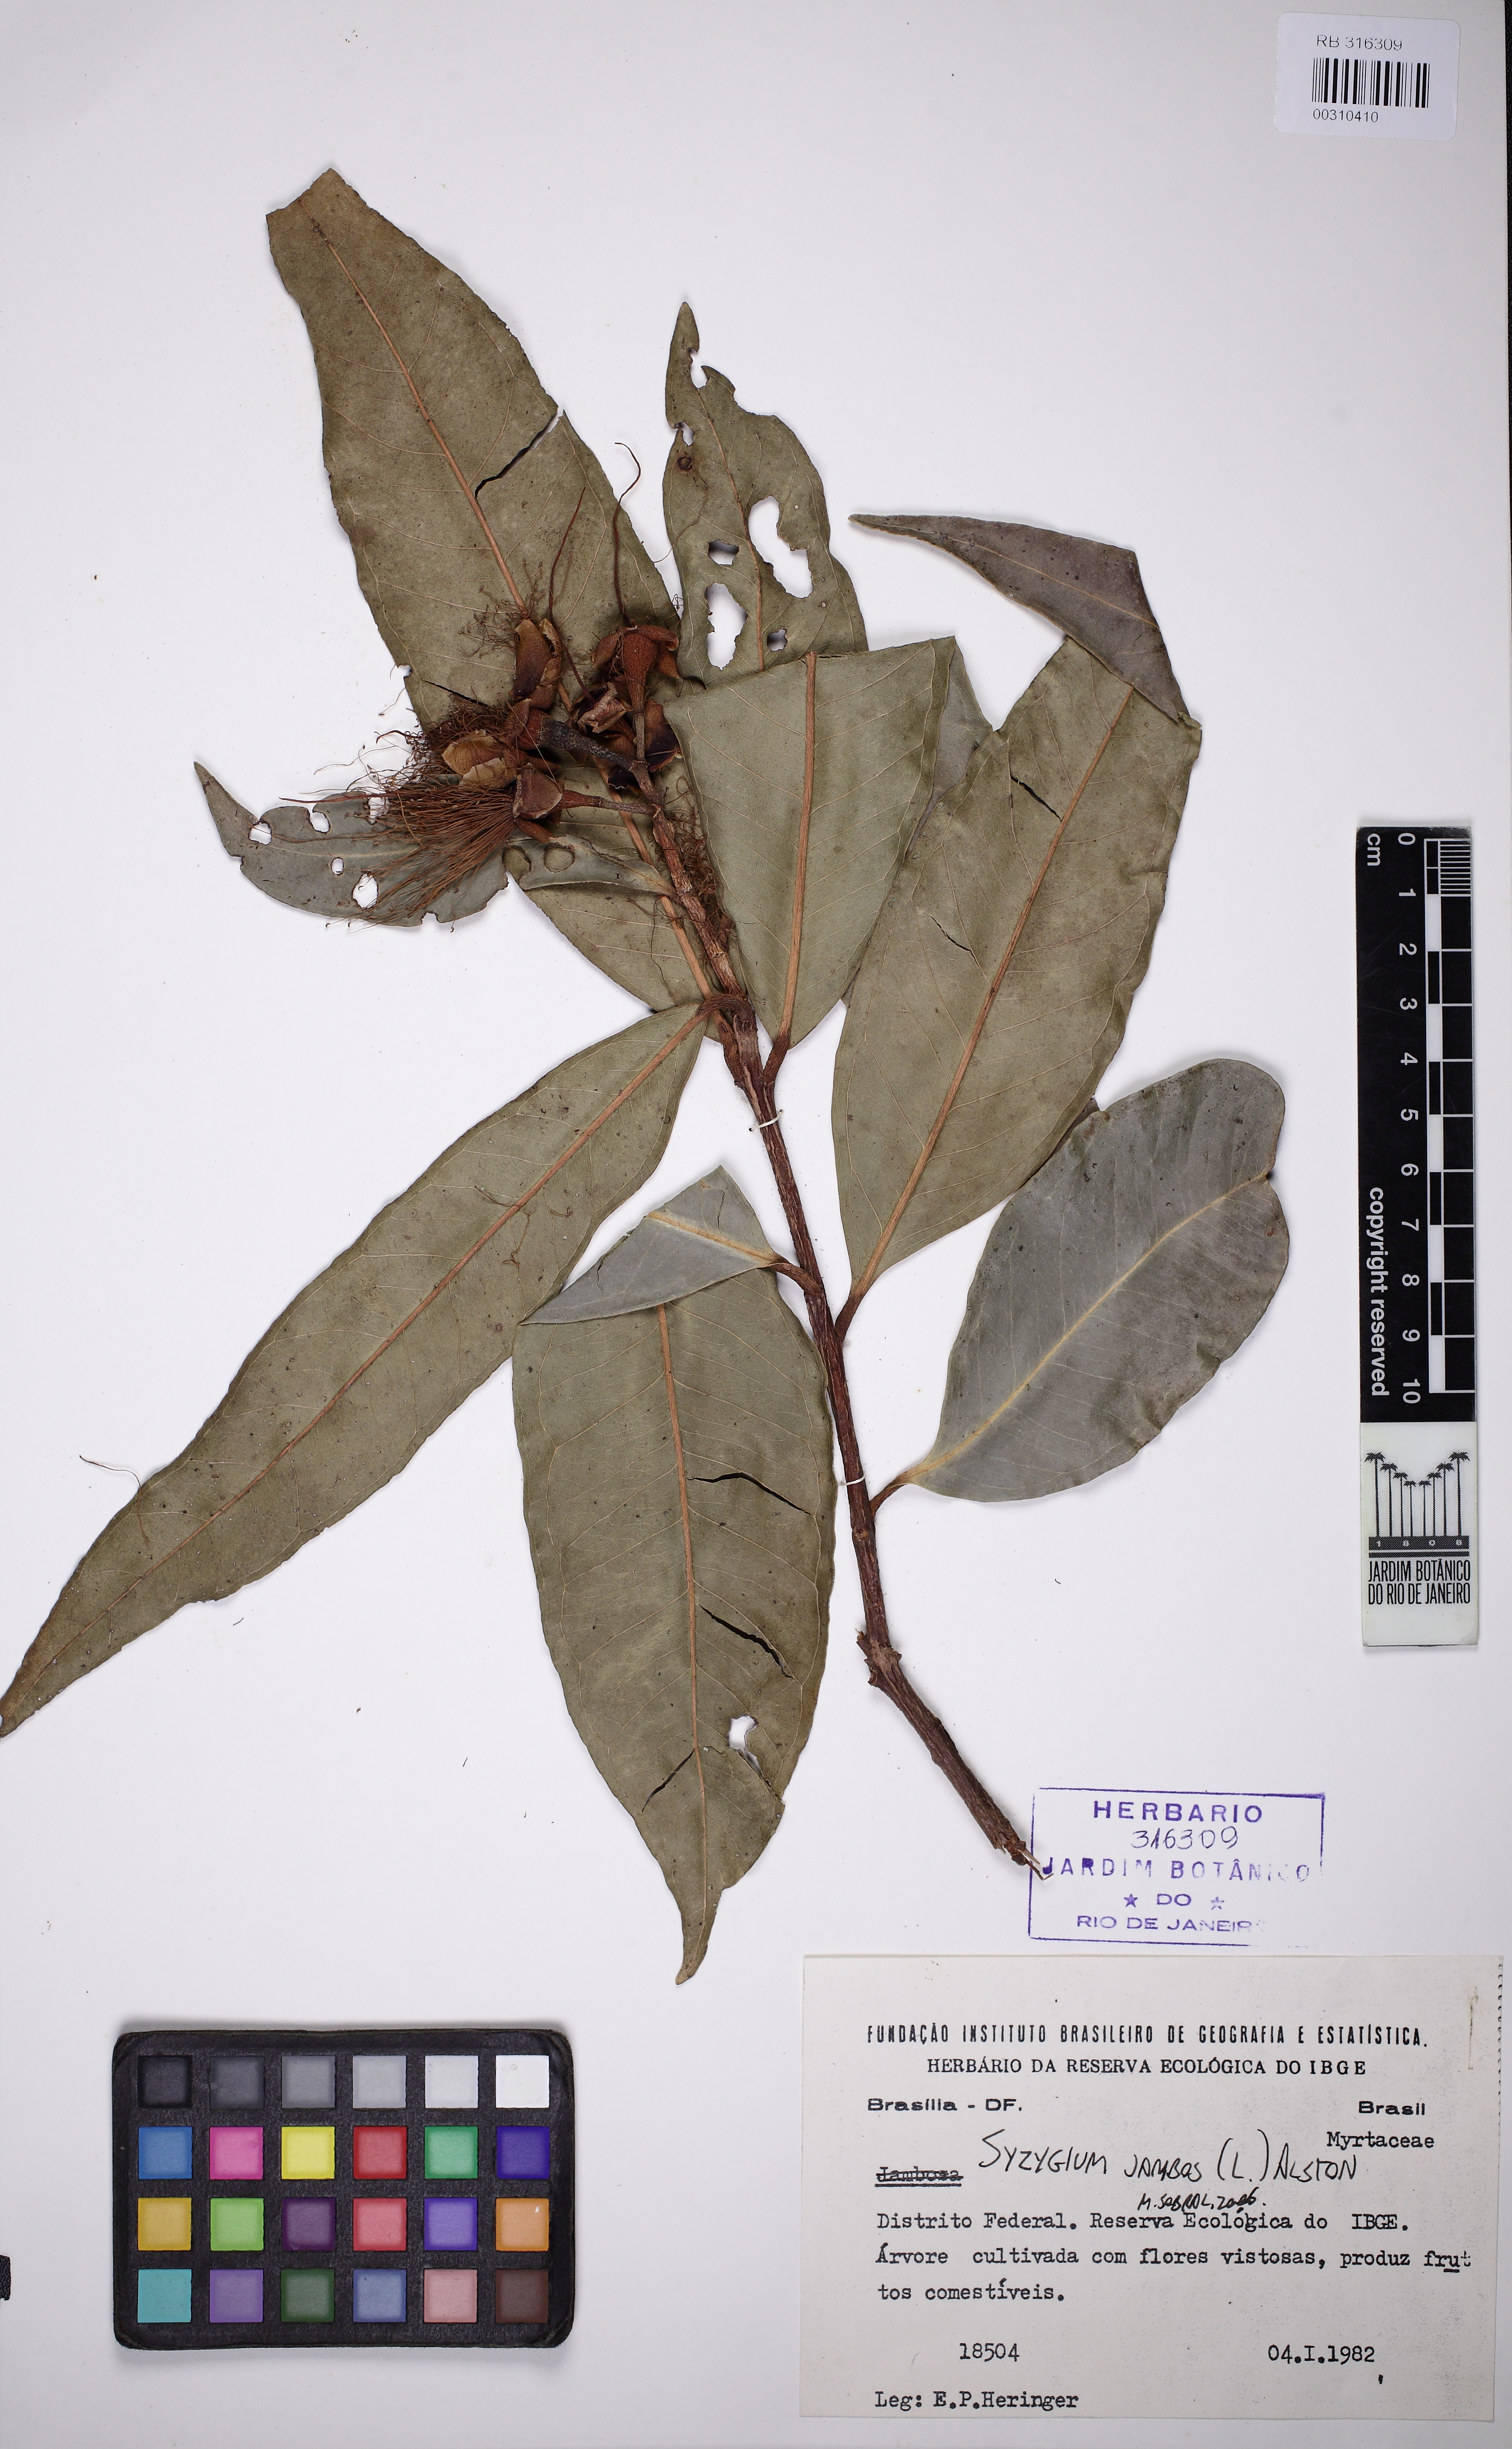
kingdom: Plantae
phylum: Tracheophyta
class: Magnoliopsida
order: Myrtales
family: Myrtaceae
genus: Syzygium
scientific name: Syzygium jambos
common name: Malabar plum
